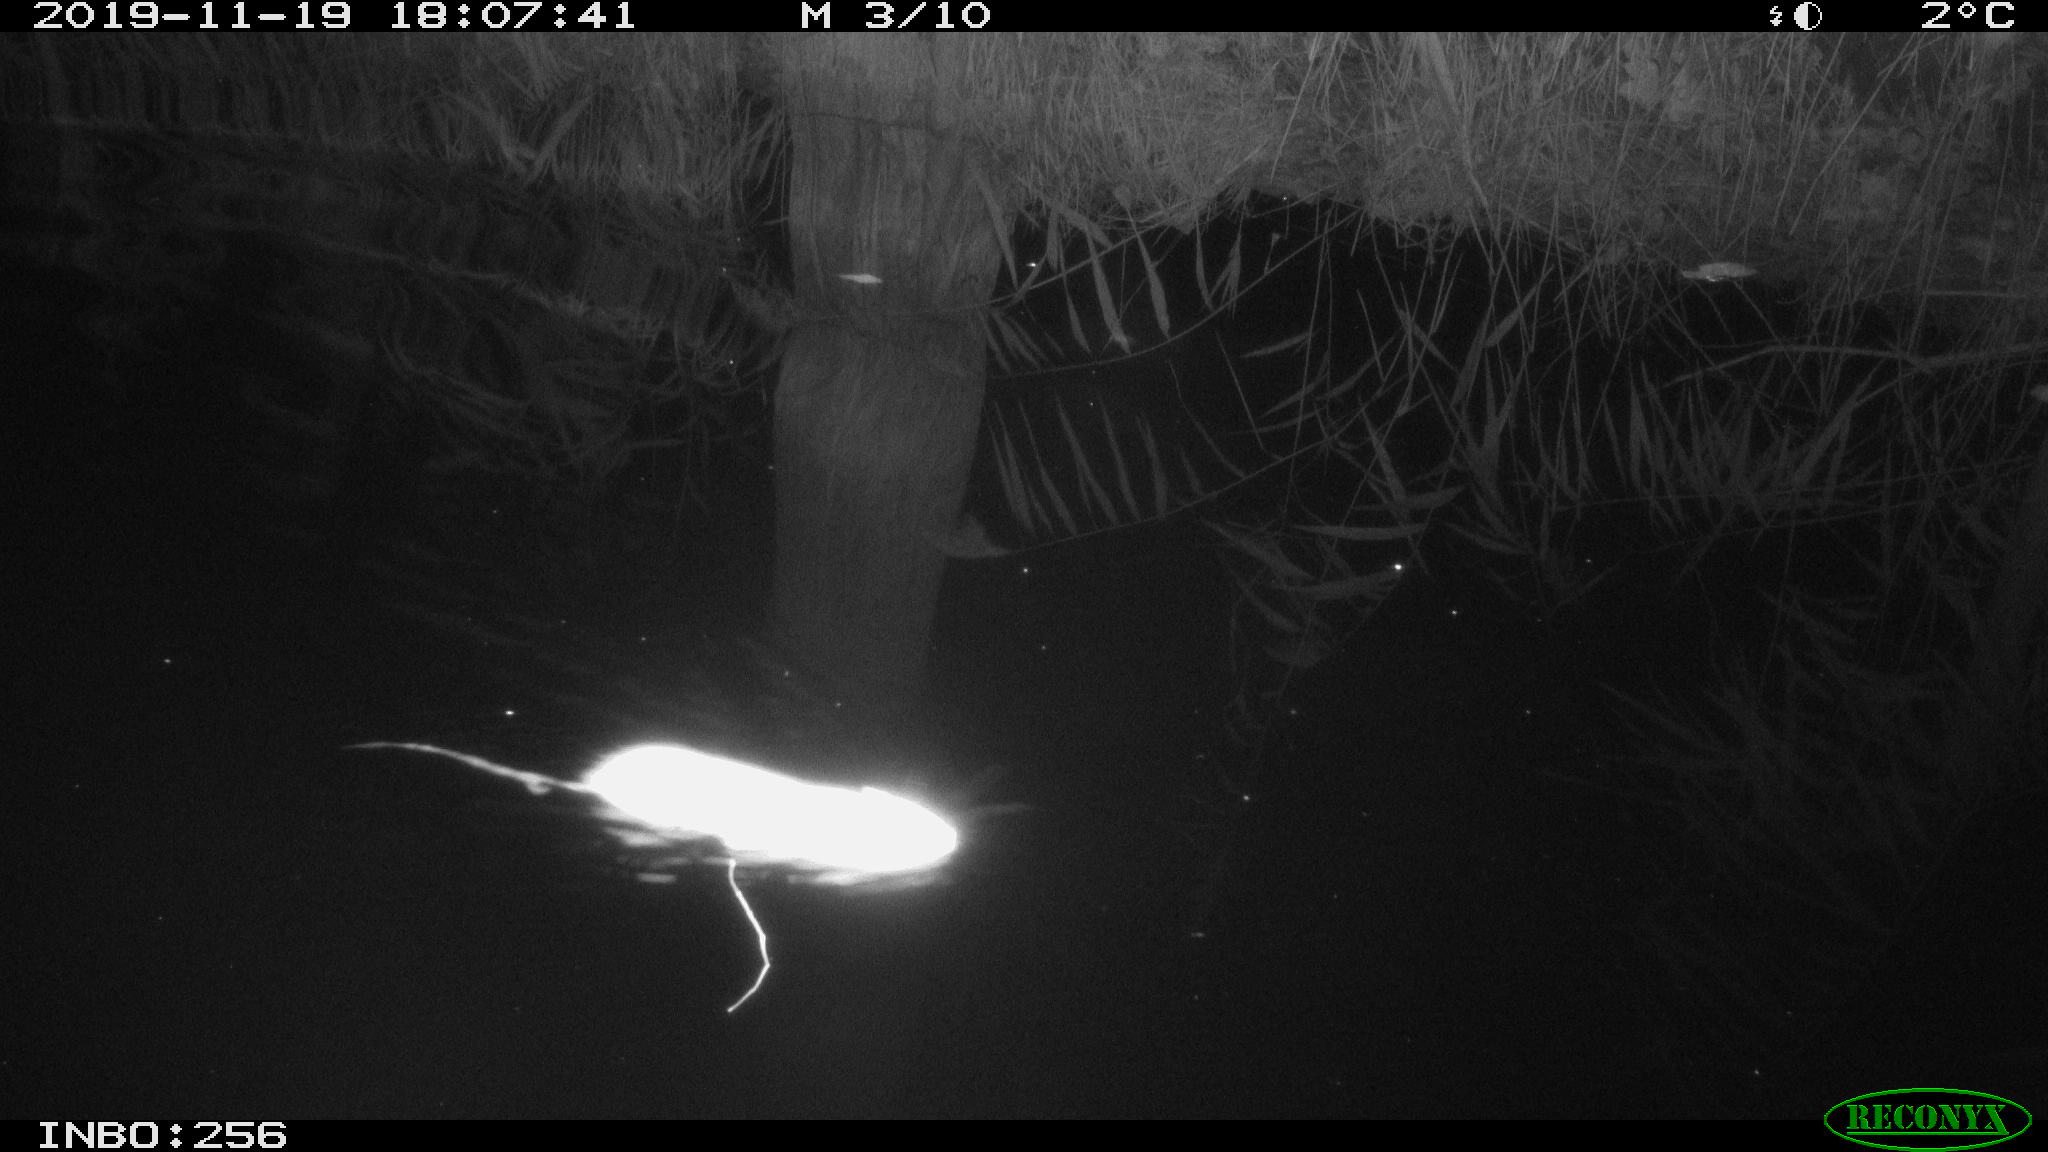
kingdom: Animalia
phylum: Chordata
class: Mammalia
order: Rodentia
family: Muridae
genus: Rattus
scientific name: Rattus norvegicus
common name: Brown rat
